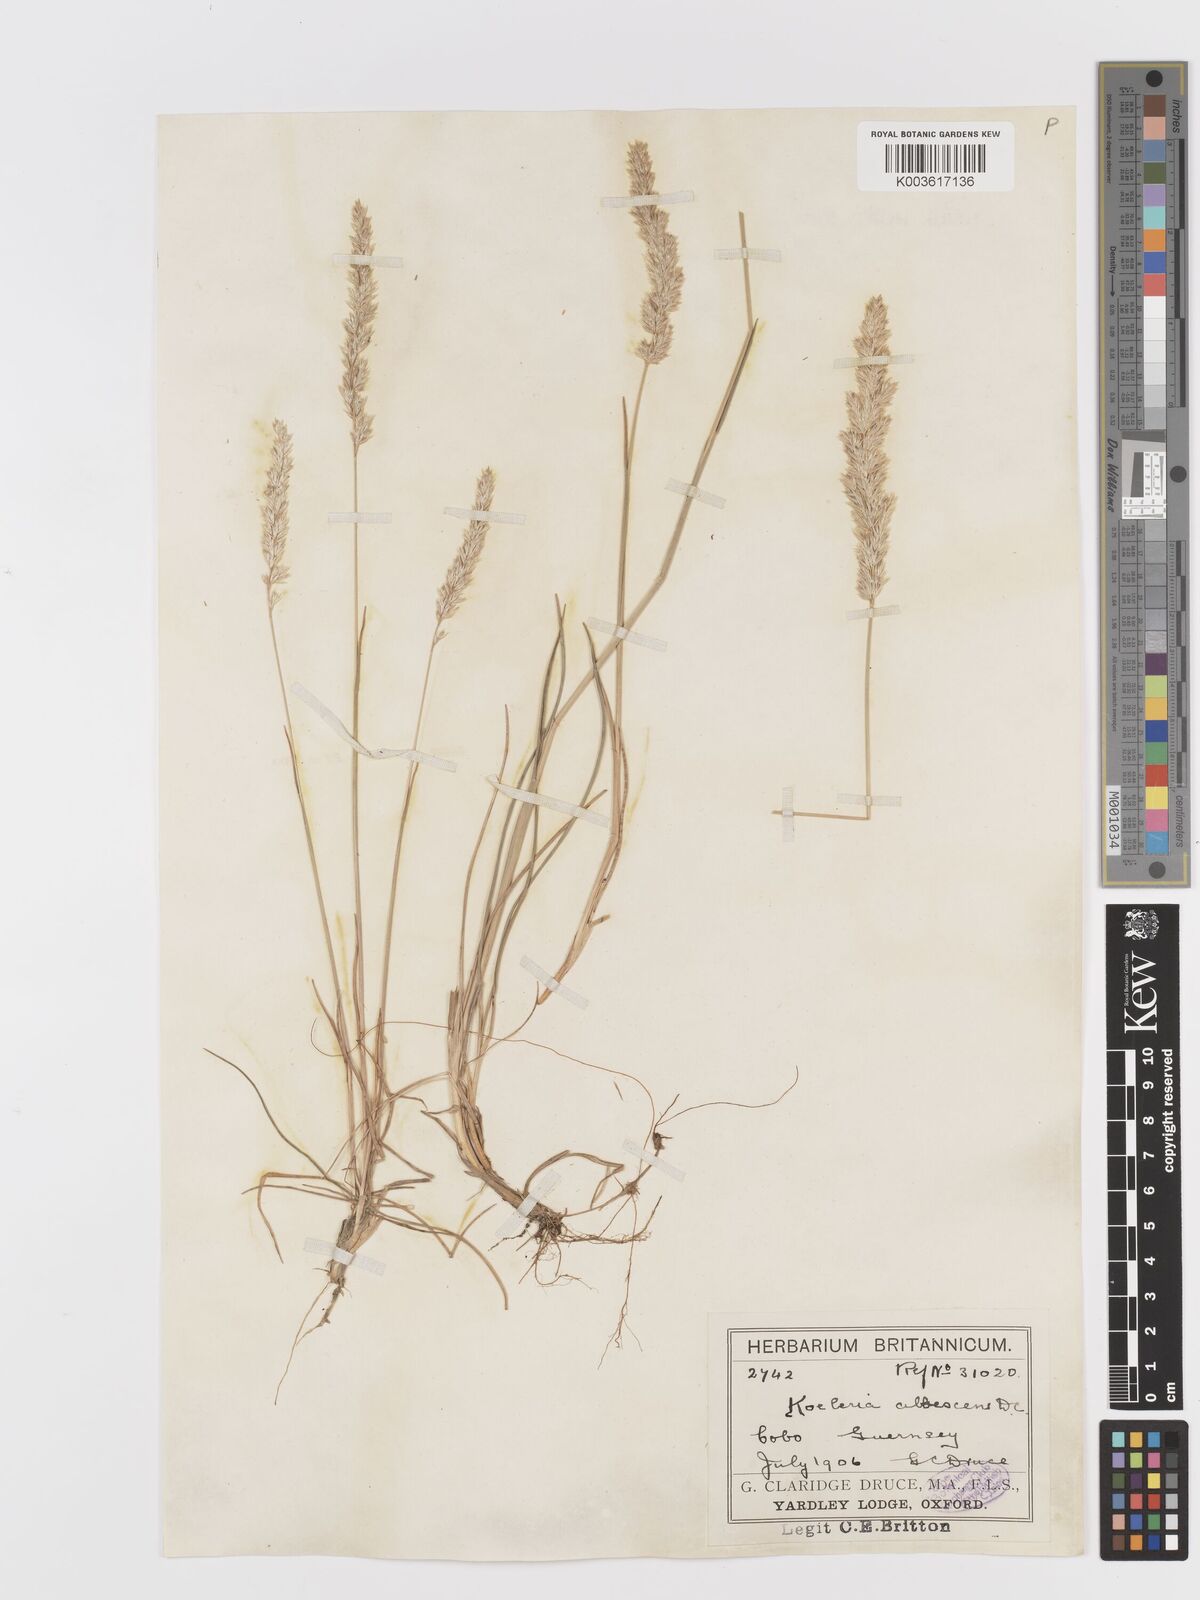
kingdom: Plantae
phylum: Tracheophyta
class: Liliopsida
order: Poales
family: Poaceae
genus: Koeleria
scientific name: Koeleria macrantha
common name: Crested hair-grass
